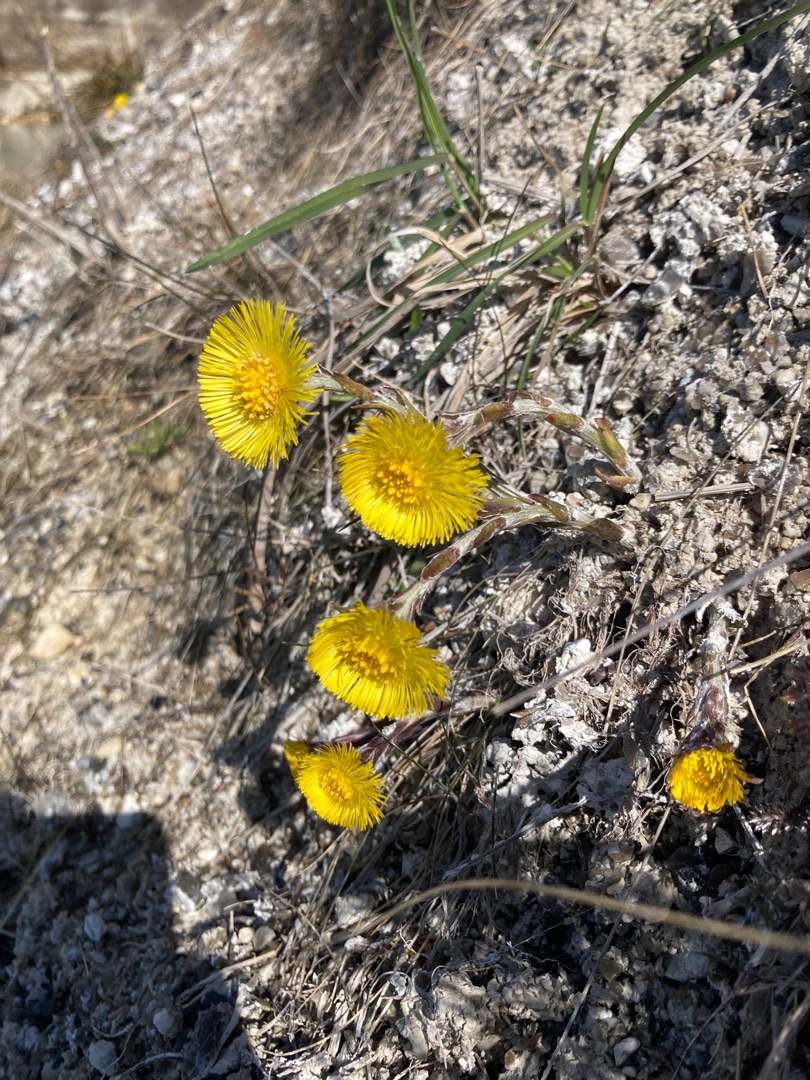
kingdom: Plantae
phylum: Tracheophyta
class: Magnoliopsida
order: Asterales
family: Asteraceae
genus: Tussilago
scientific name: Tussilago farfara
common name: Følfod
